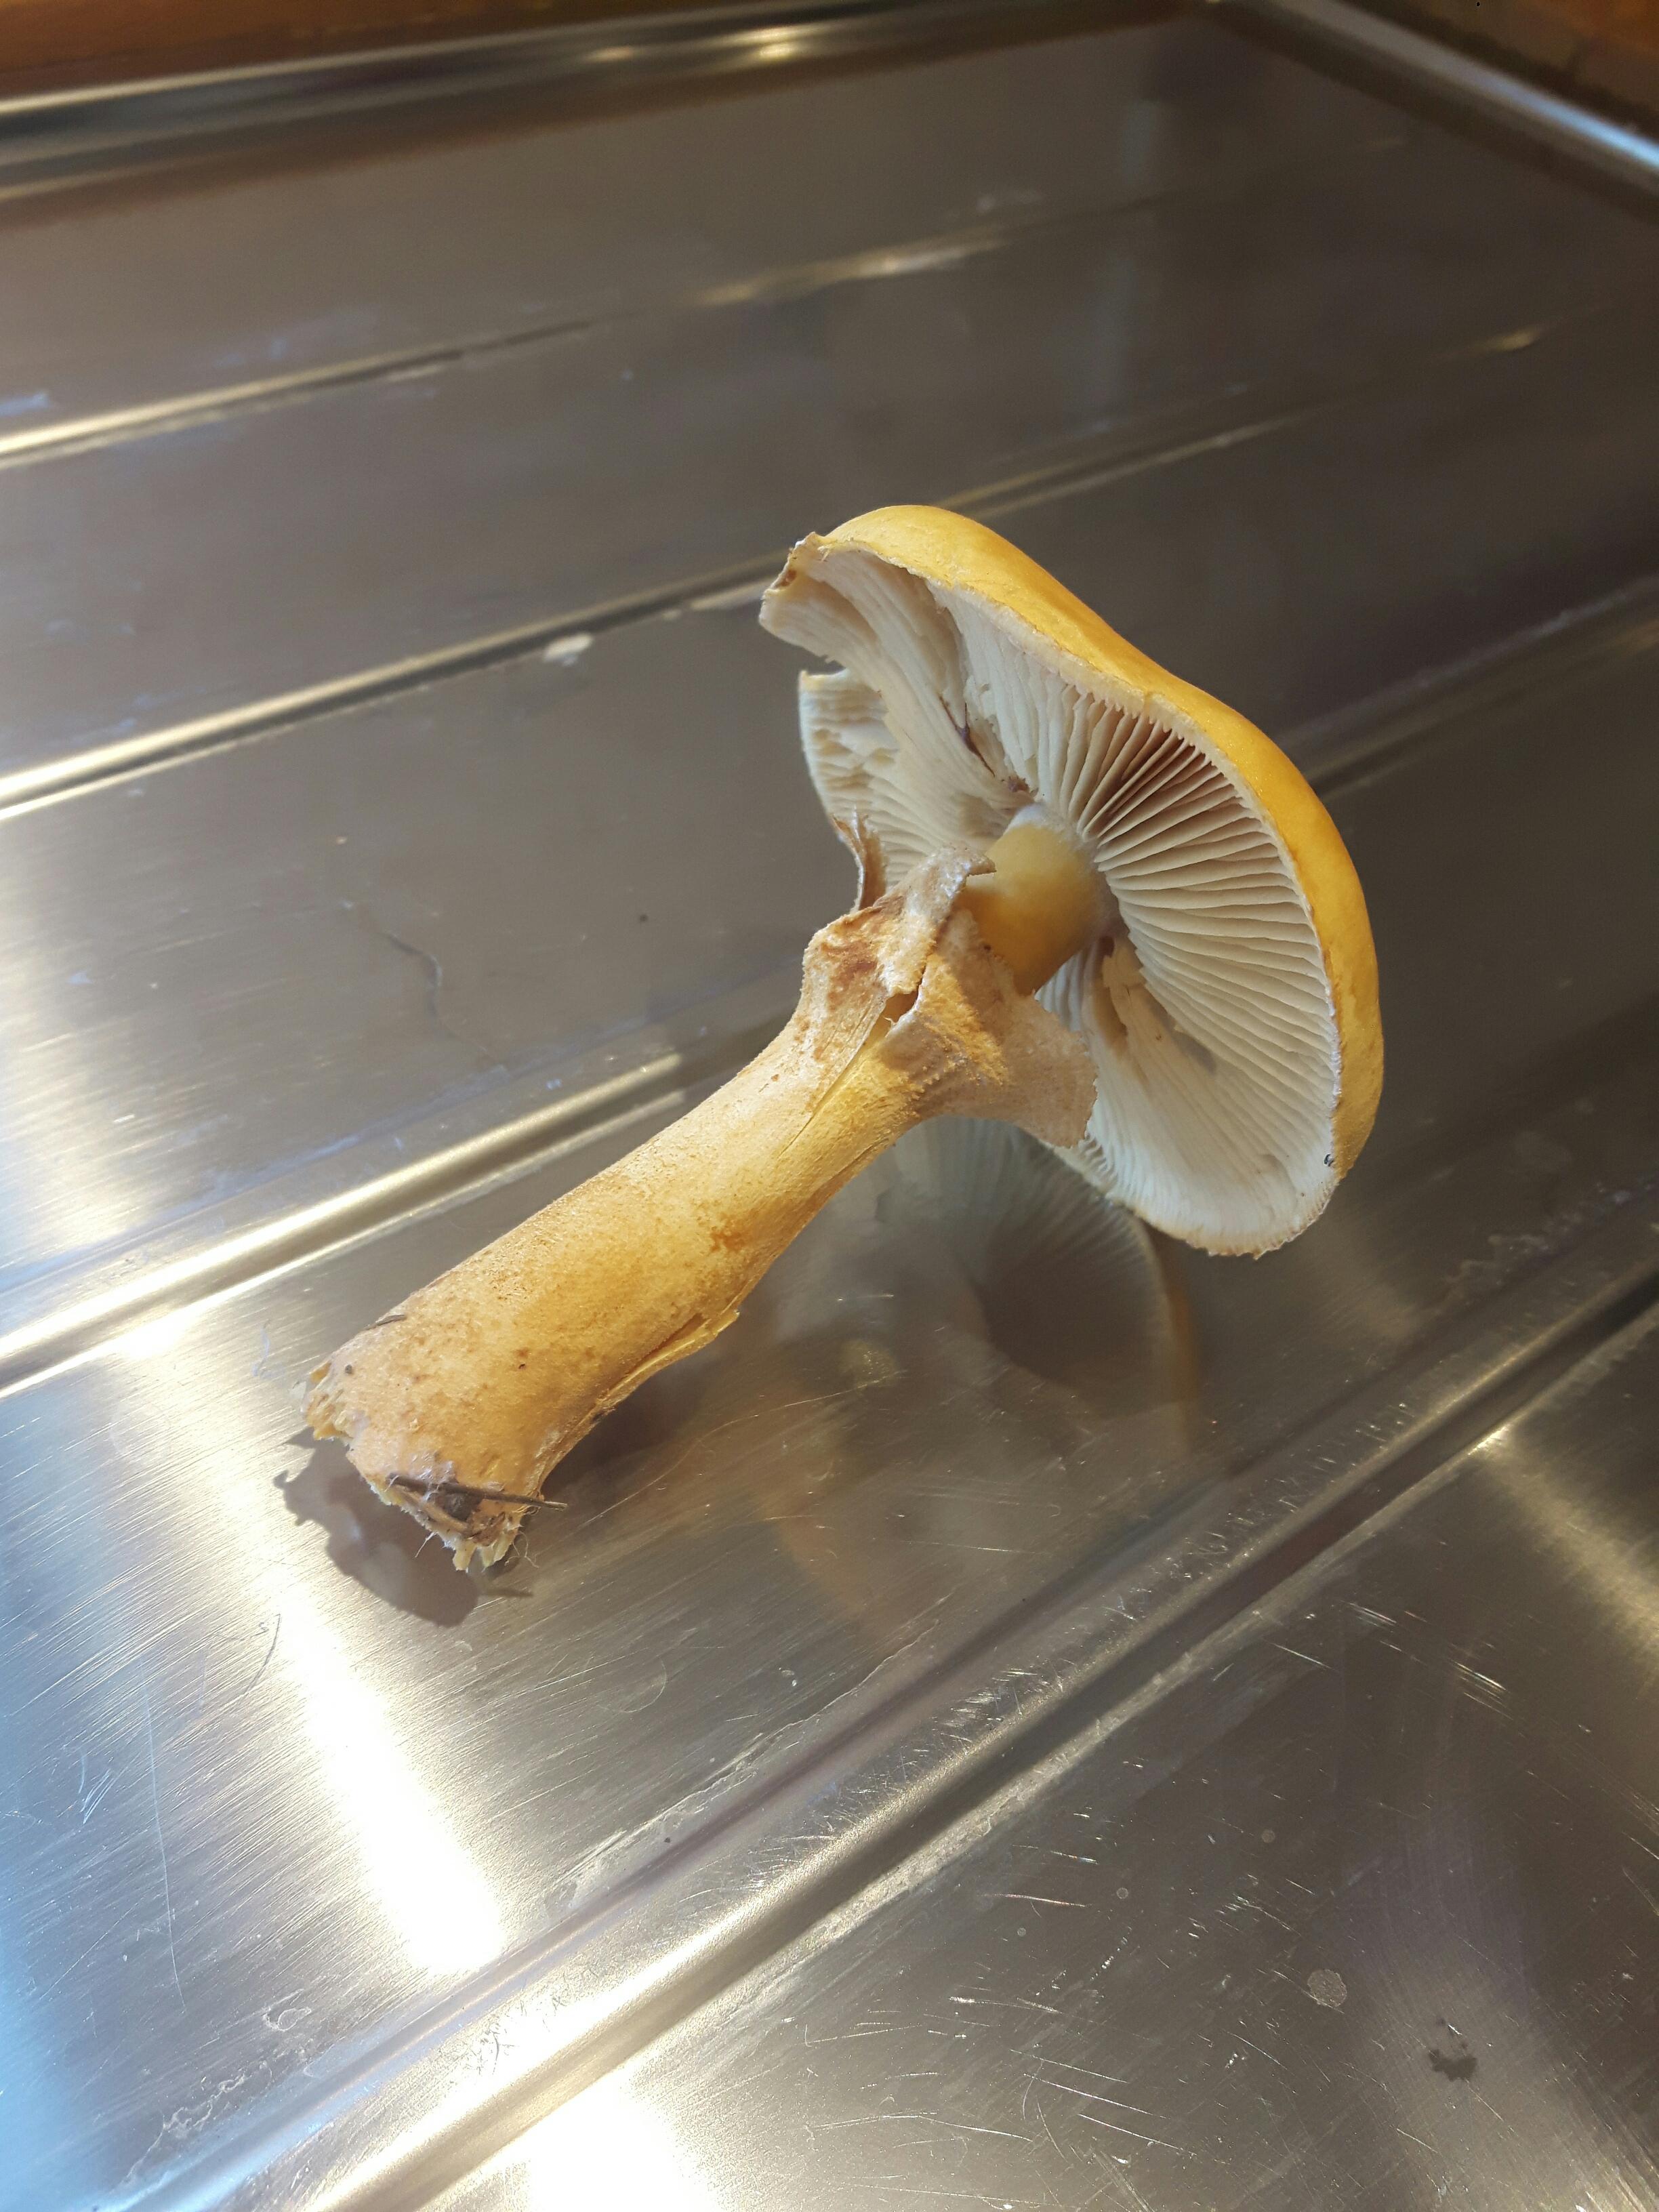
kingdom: Fungi
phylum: Basidiomycota
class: Agaricomycetes
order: Agaricales
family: Tricholomataceae
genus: Phaeolepiota
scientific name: Phaeolepiota aurea
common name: gyldenhat
